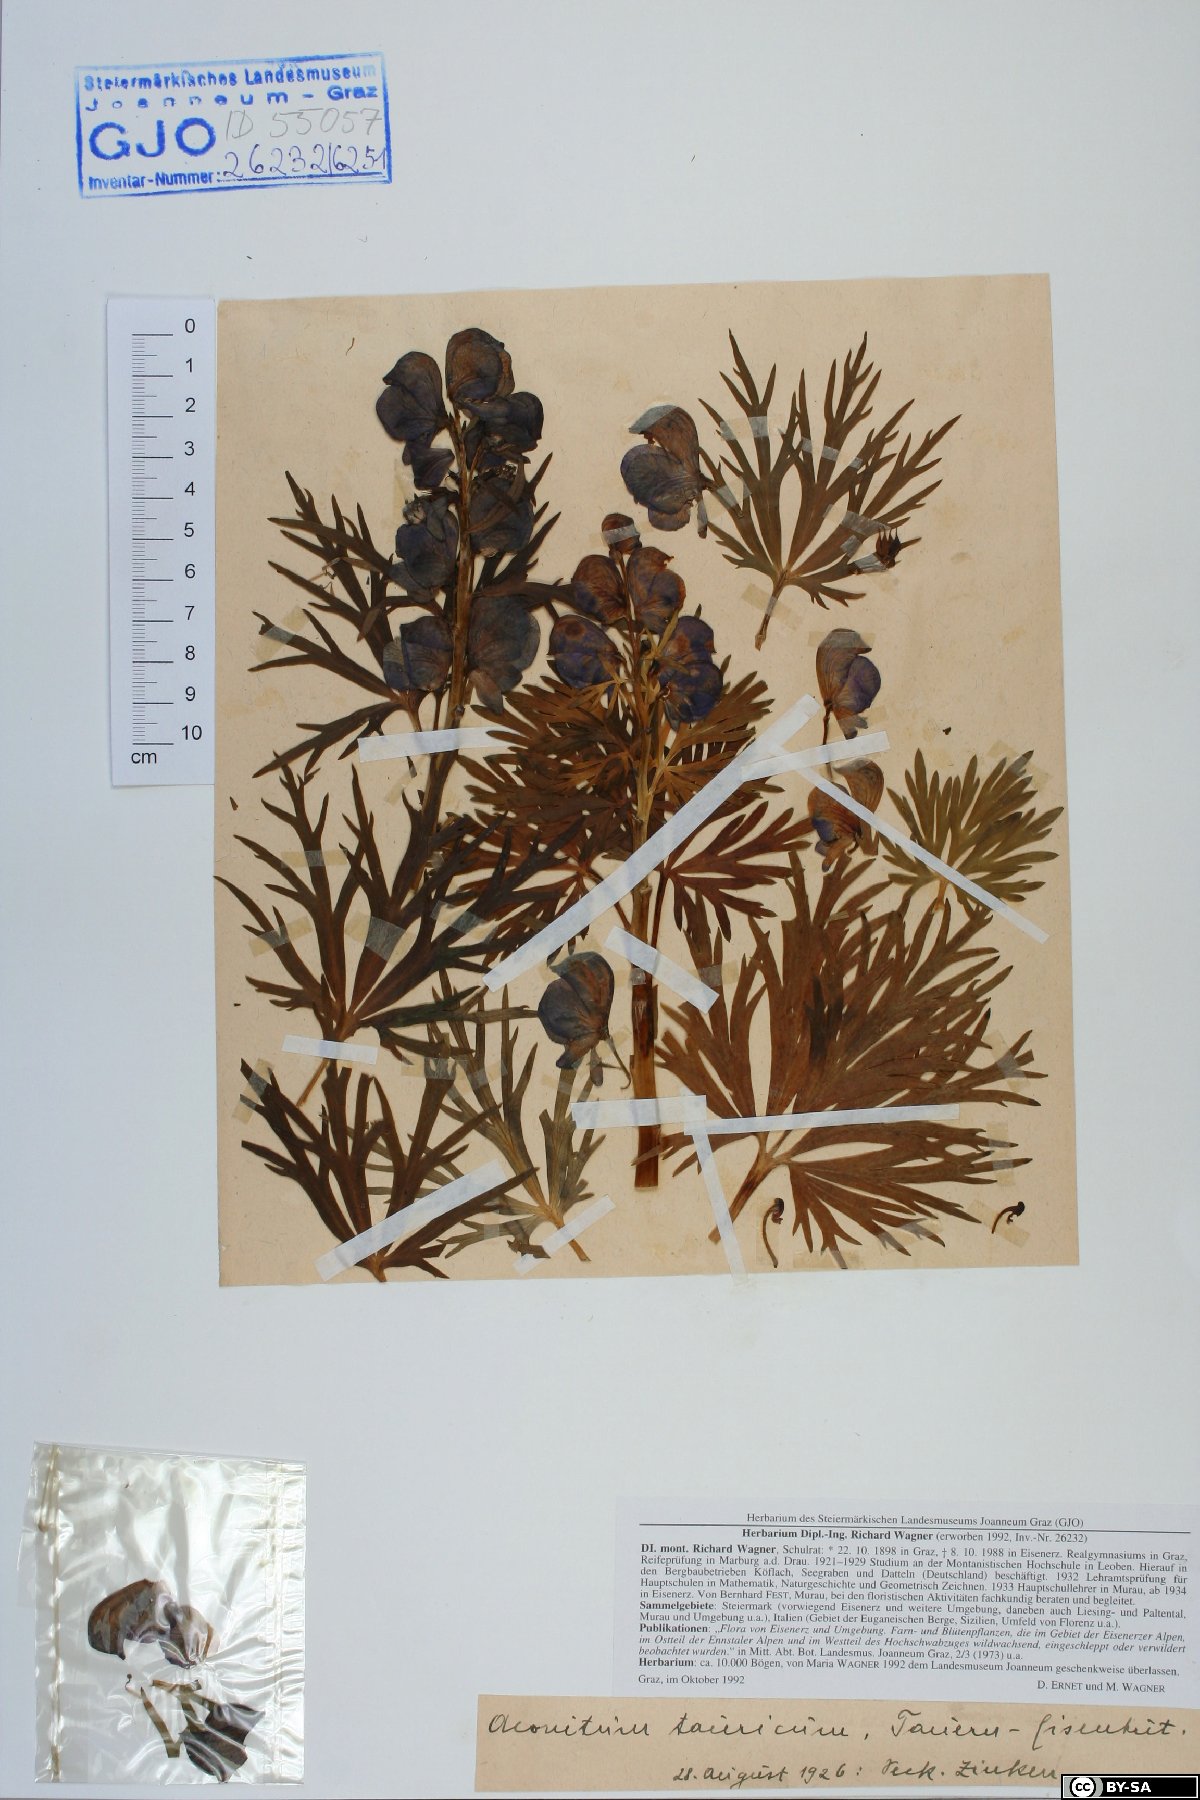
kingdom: Plantae
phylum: Tracheophyta
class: Magnoliopsida
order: Ranunculales
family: Ranunculaceae
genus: Aconitum
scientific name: Aconitum tauricum
